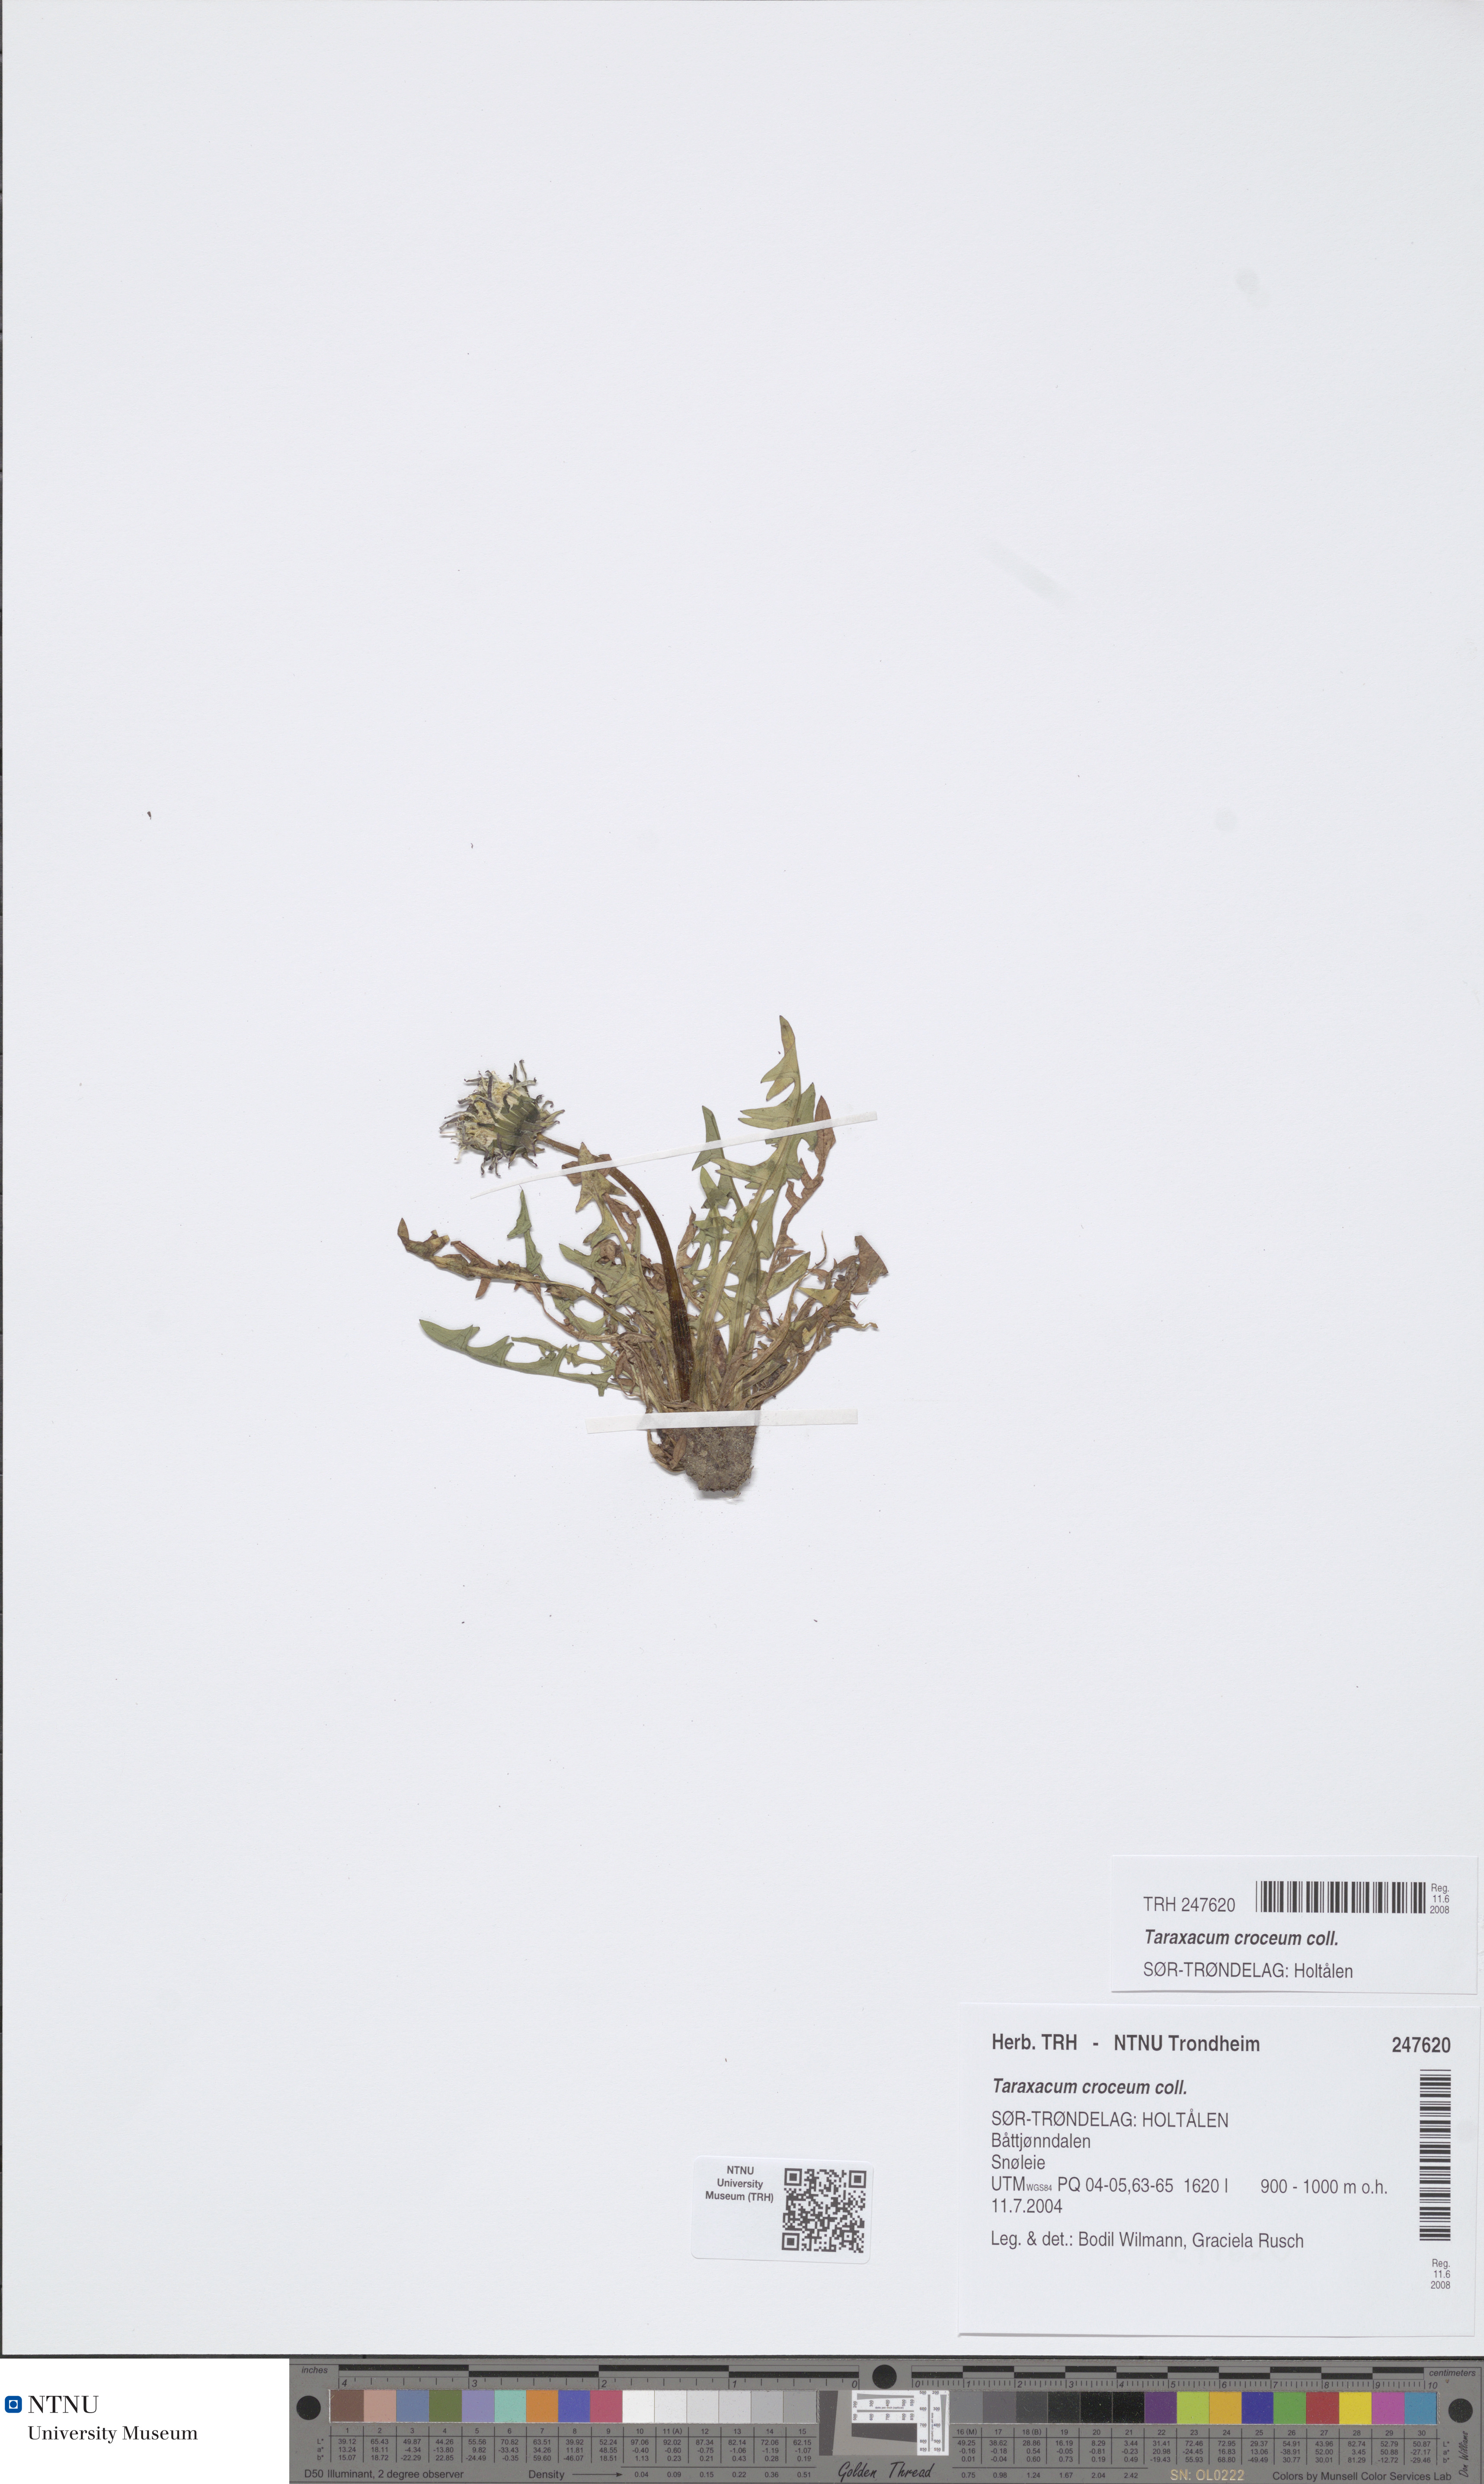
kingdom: Plantae
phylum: Tracheophyta
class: Magnoliopsida
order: Asterales
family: Asteraceae
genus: Taraxacum
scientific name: Taraxacum croceum
